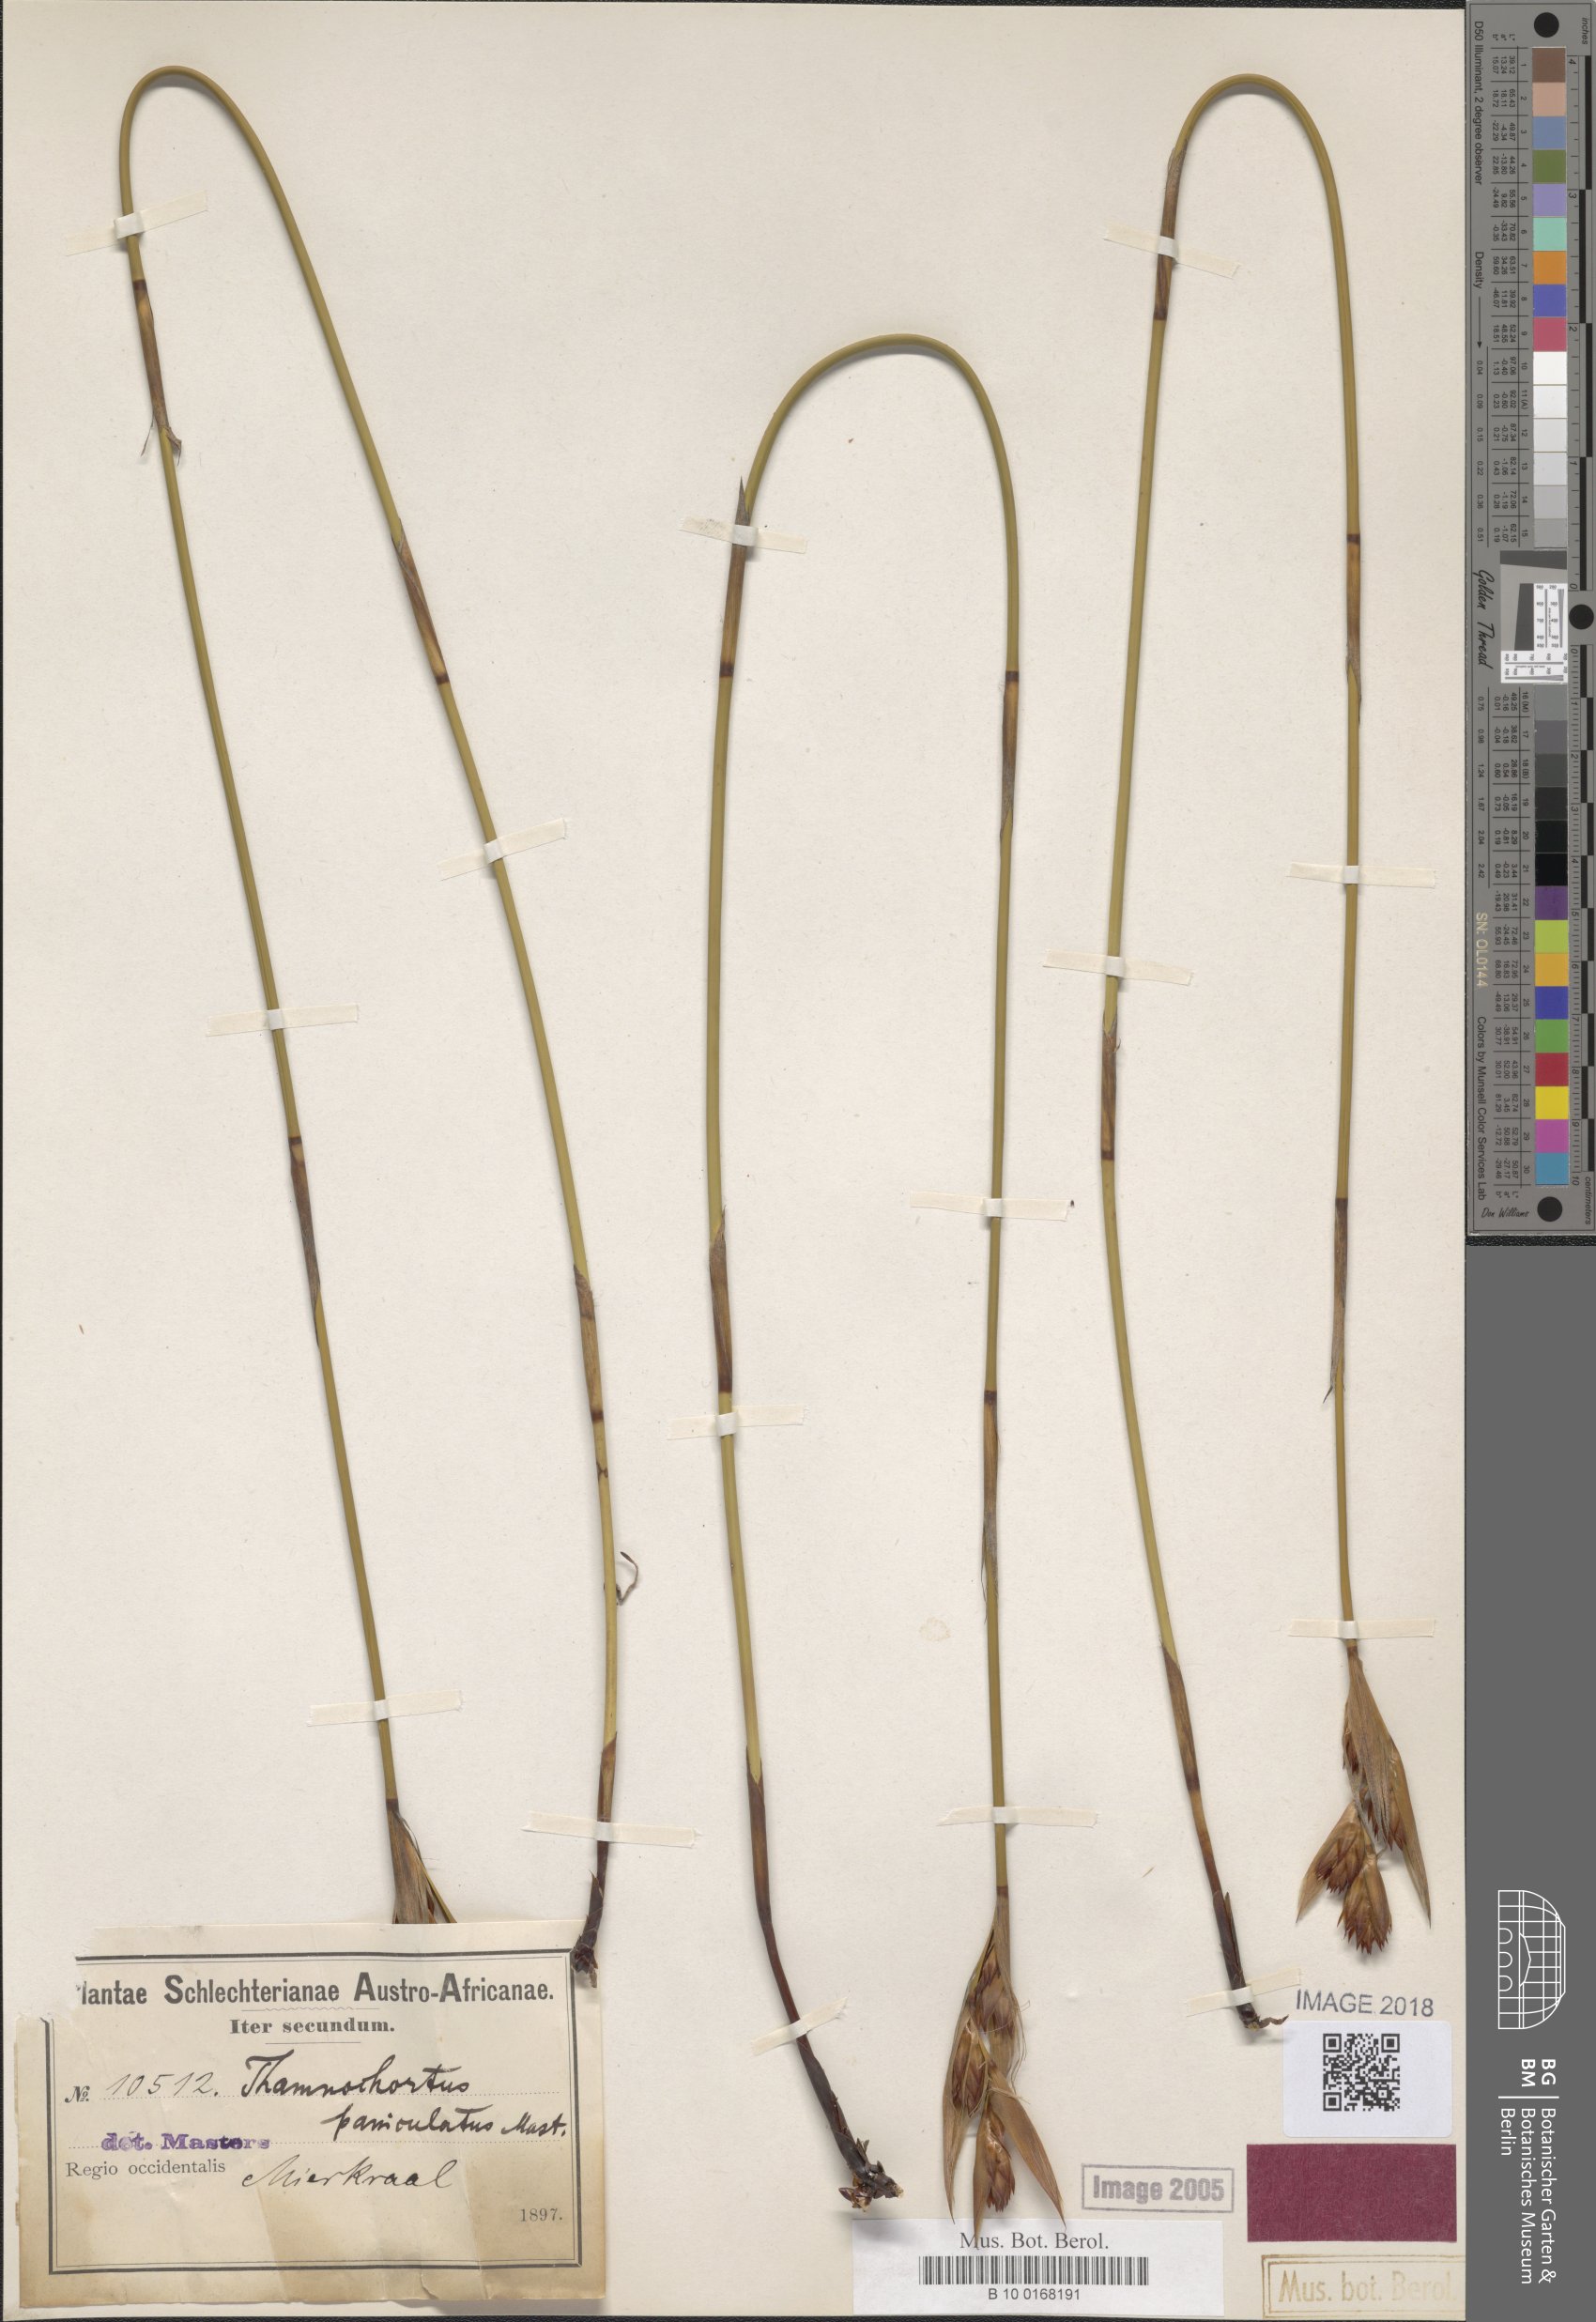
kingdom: Plantae
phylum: Tracheophyta
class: Liliopsida
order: Poales
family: Restionaceae
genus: Thamnochortus
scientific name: Thamnochortus paniculatus
